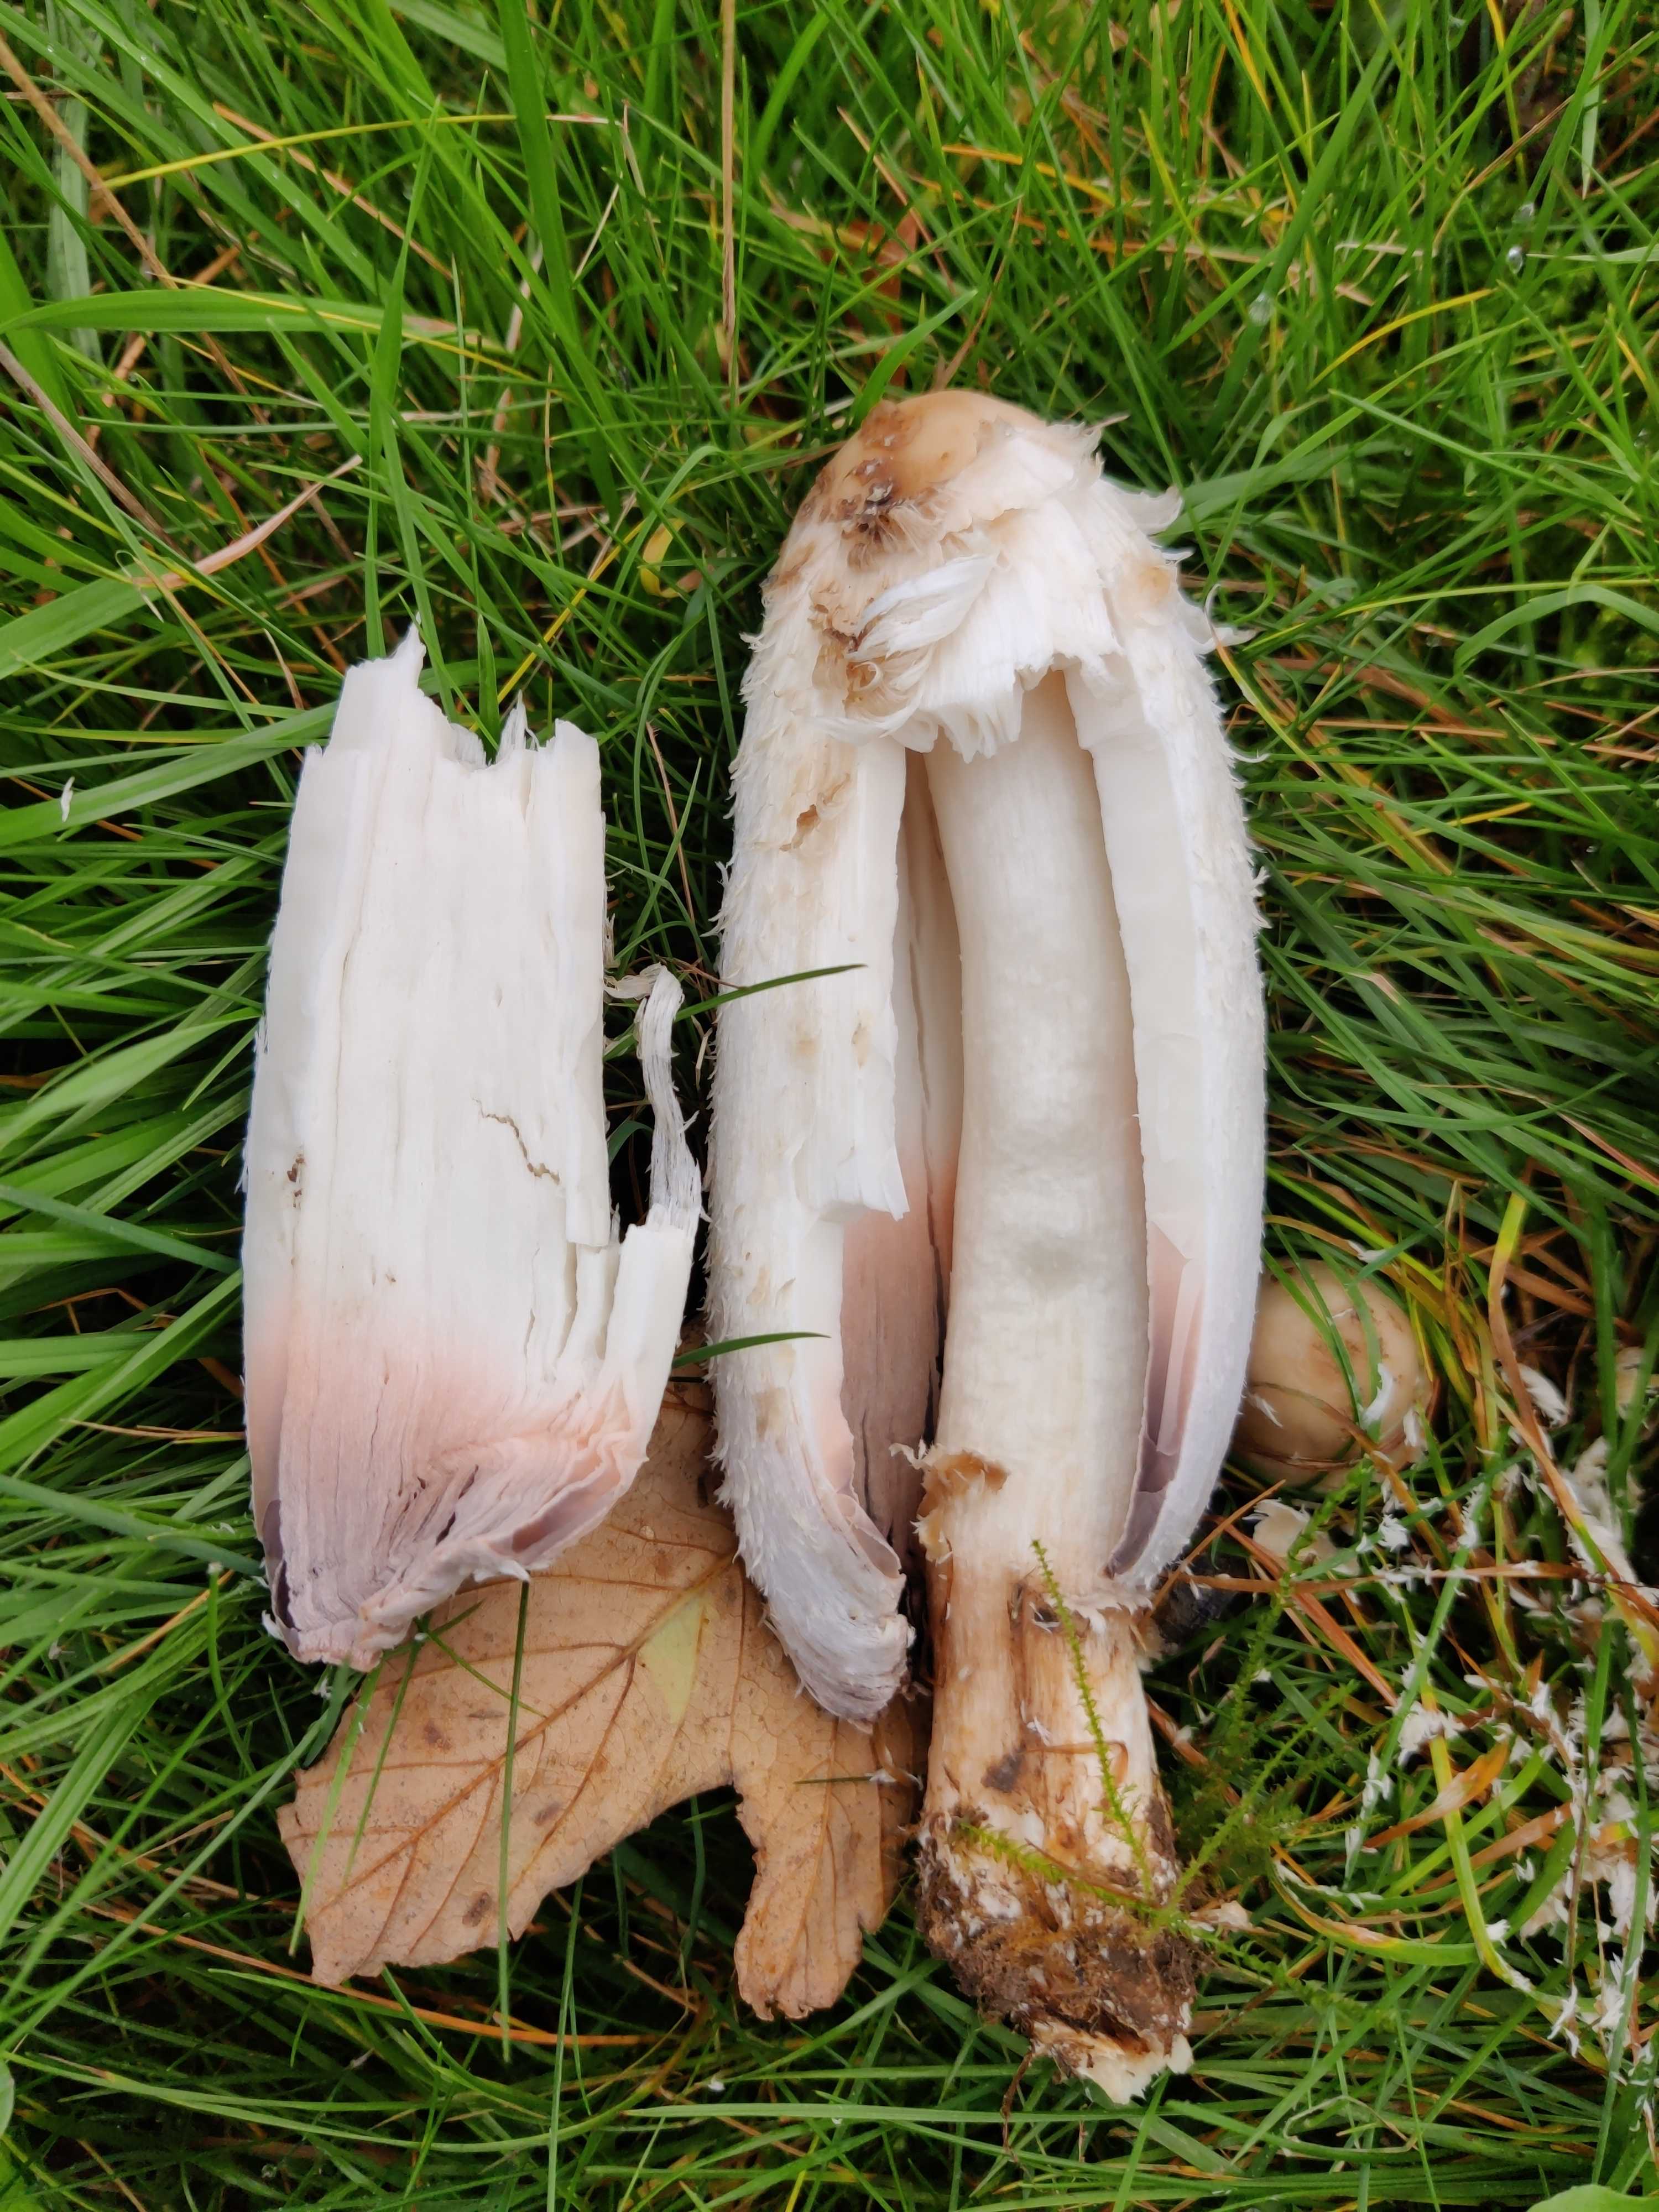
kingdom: Fungi
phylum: Basidiomycota
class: Agaricomycetes
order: Agaricales
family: Agaricaceae
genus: Coprinus
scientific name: Coprinus comatus
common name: stor parykhat
